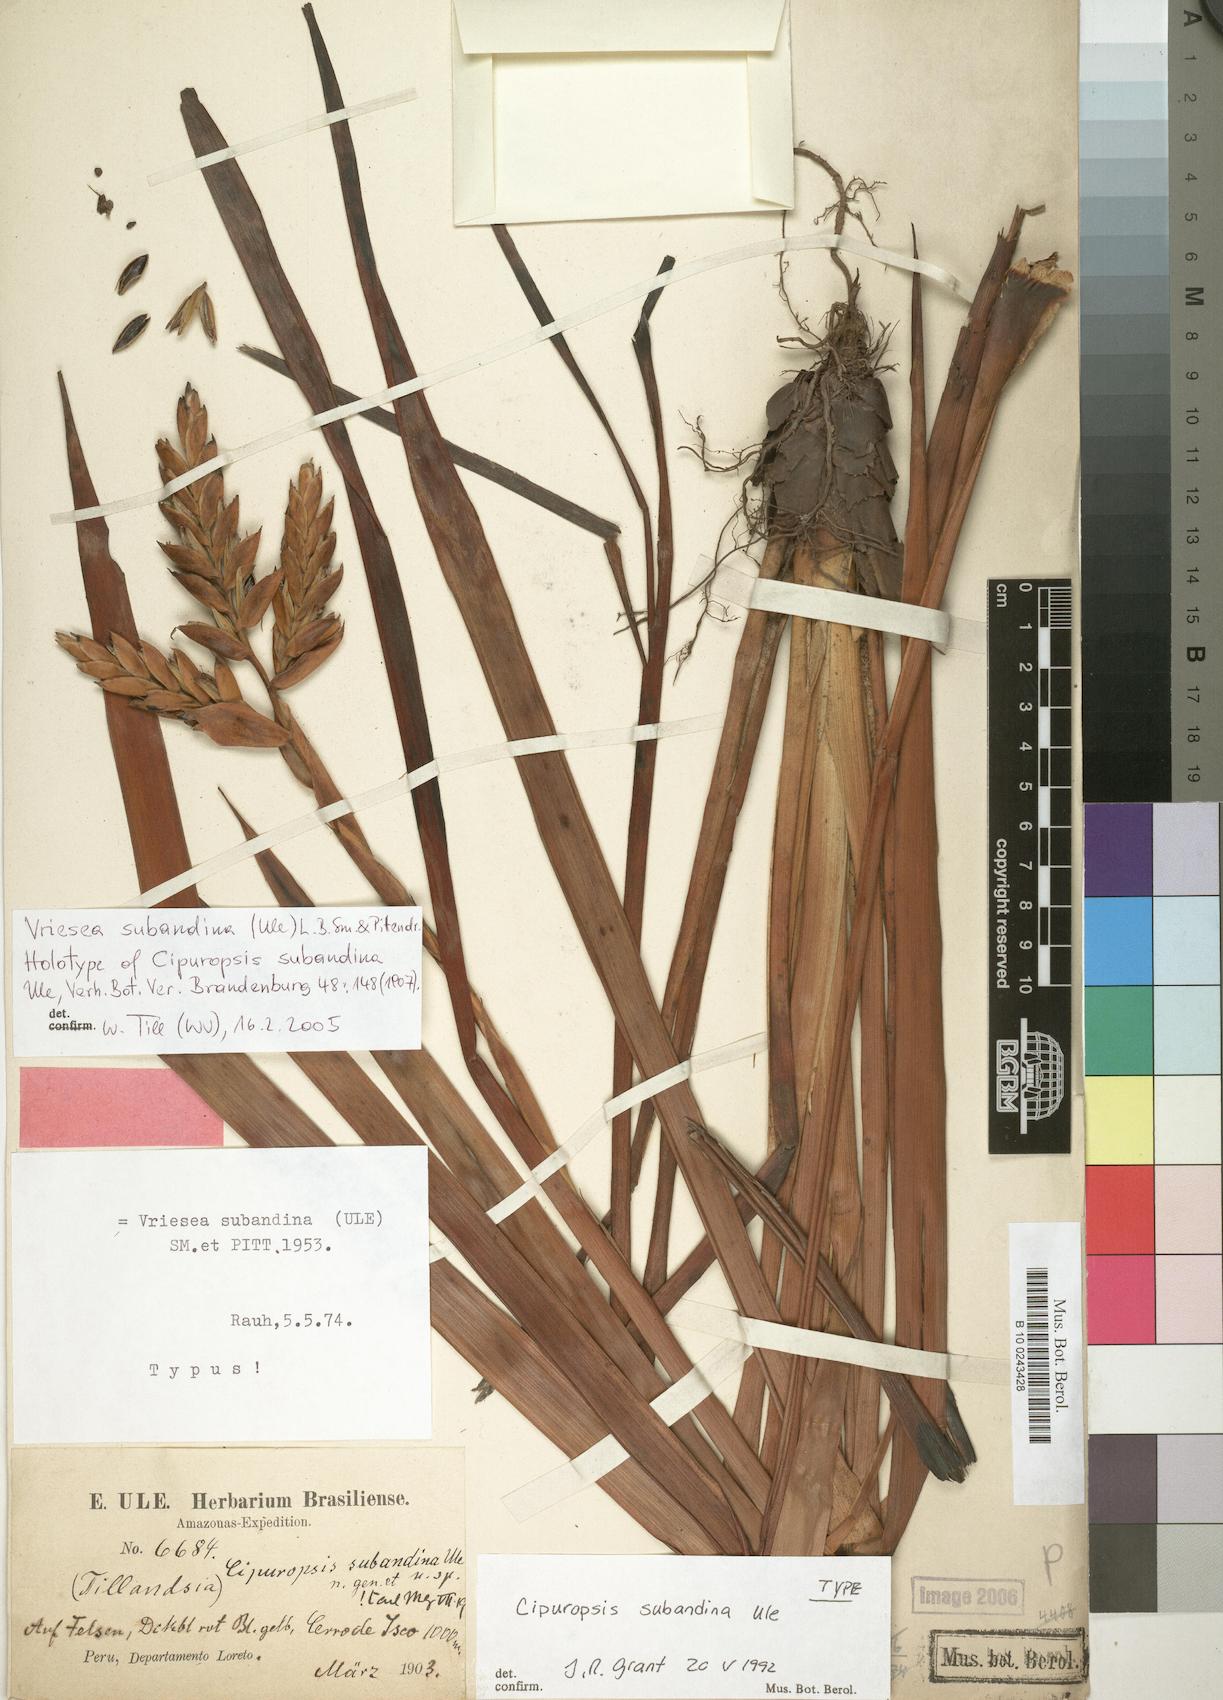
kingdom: Plantae
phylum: Tracheophyta
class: Liliopsida
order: Poales
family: Bromeliaceae
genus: Cipuropsis
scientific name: Cipuropsis subandina
